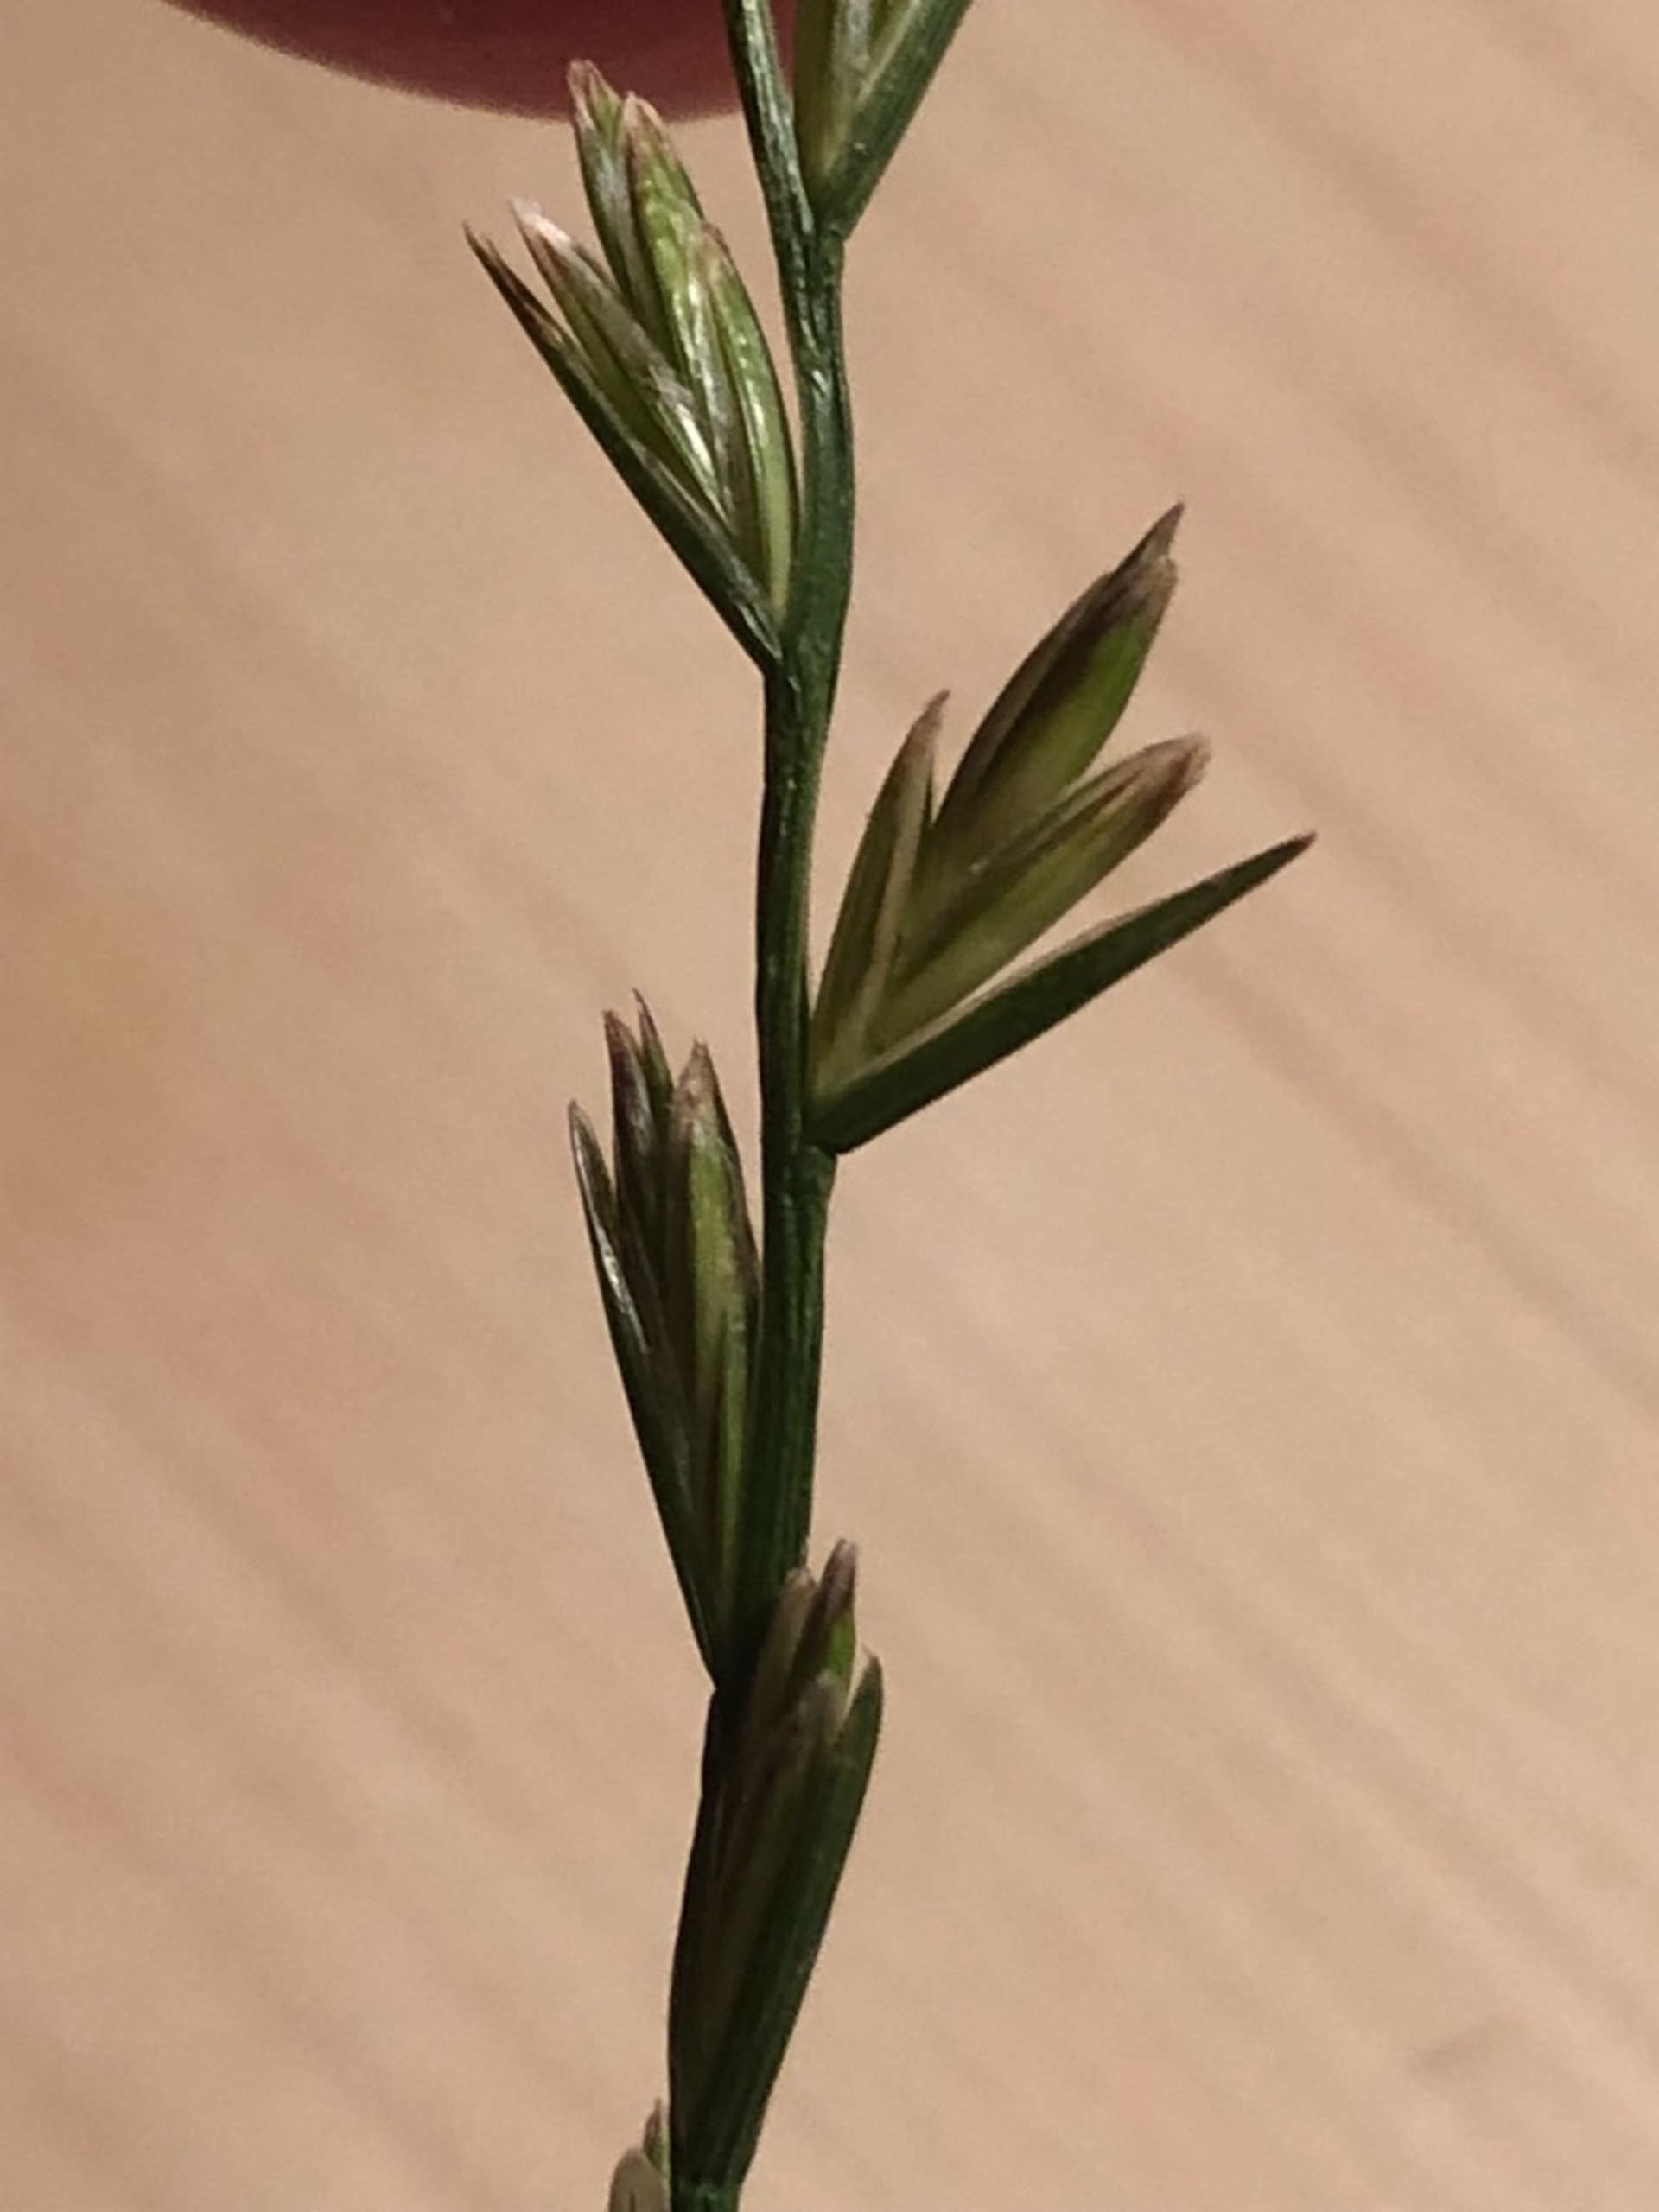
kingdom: Plantae
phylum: Tracheophyta
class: Liliopsida
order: Poales
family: Poaceae
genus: Lolium
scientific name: Lolium perenne
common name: Almindelig rajgræs
